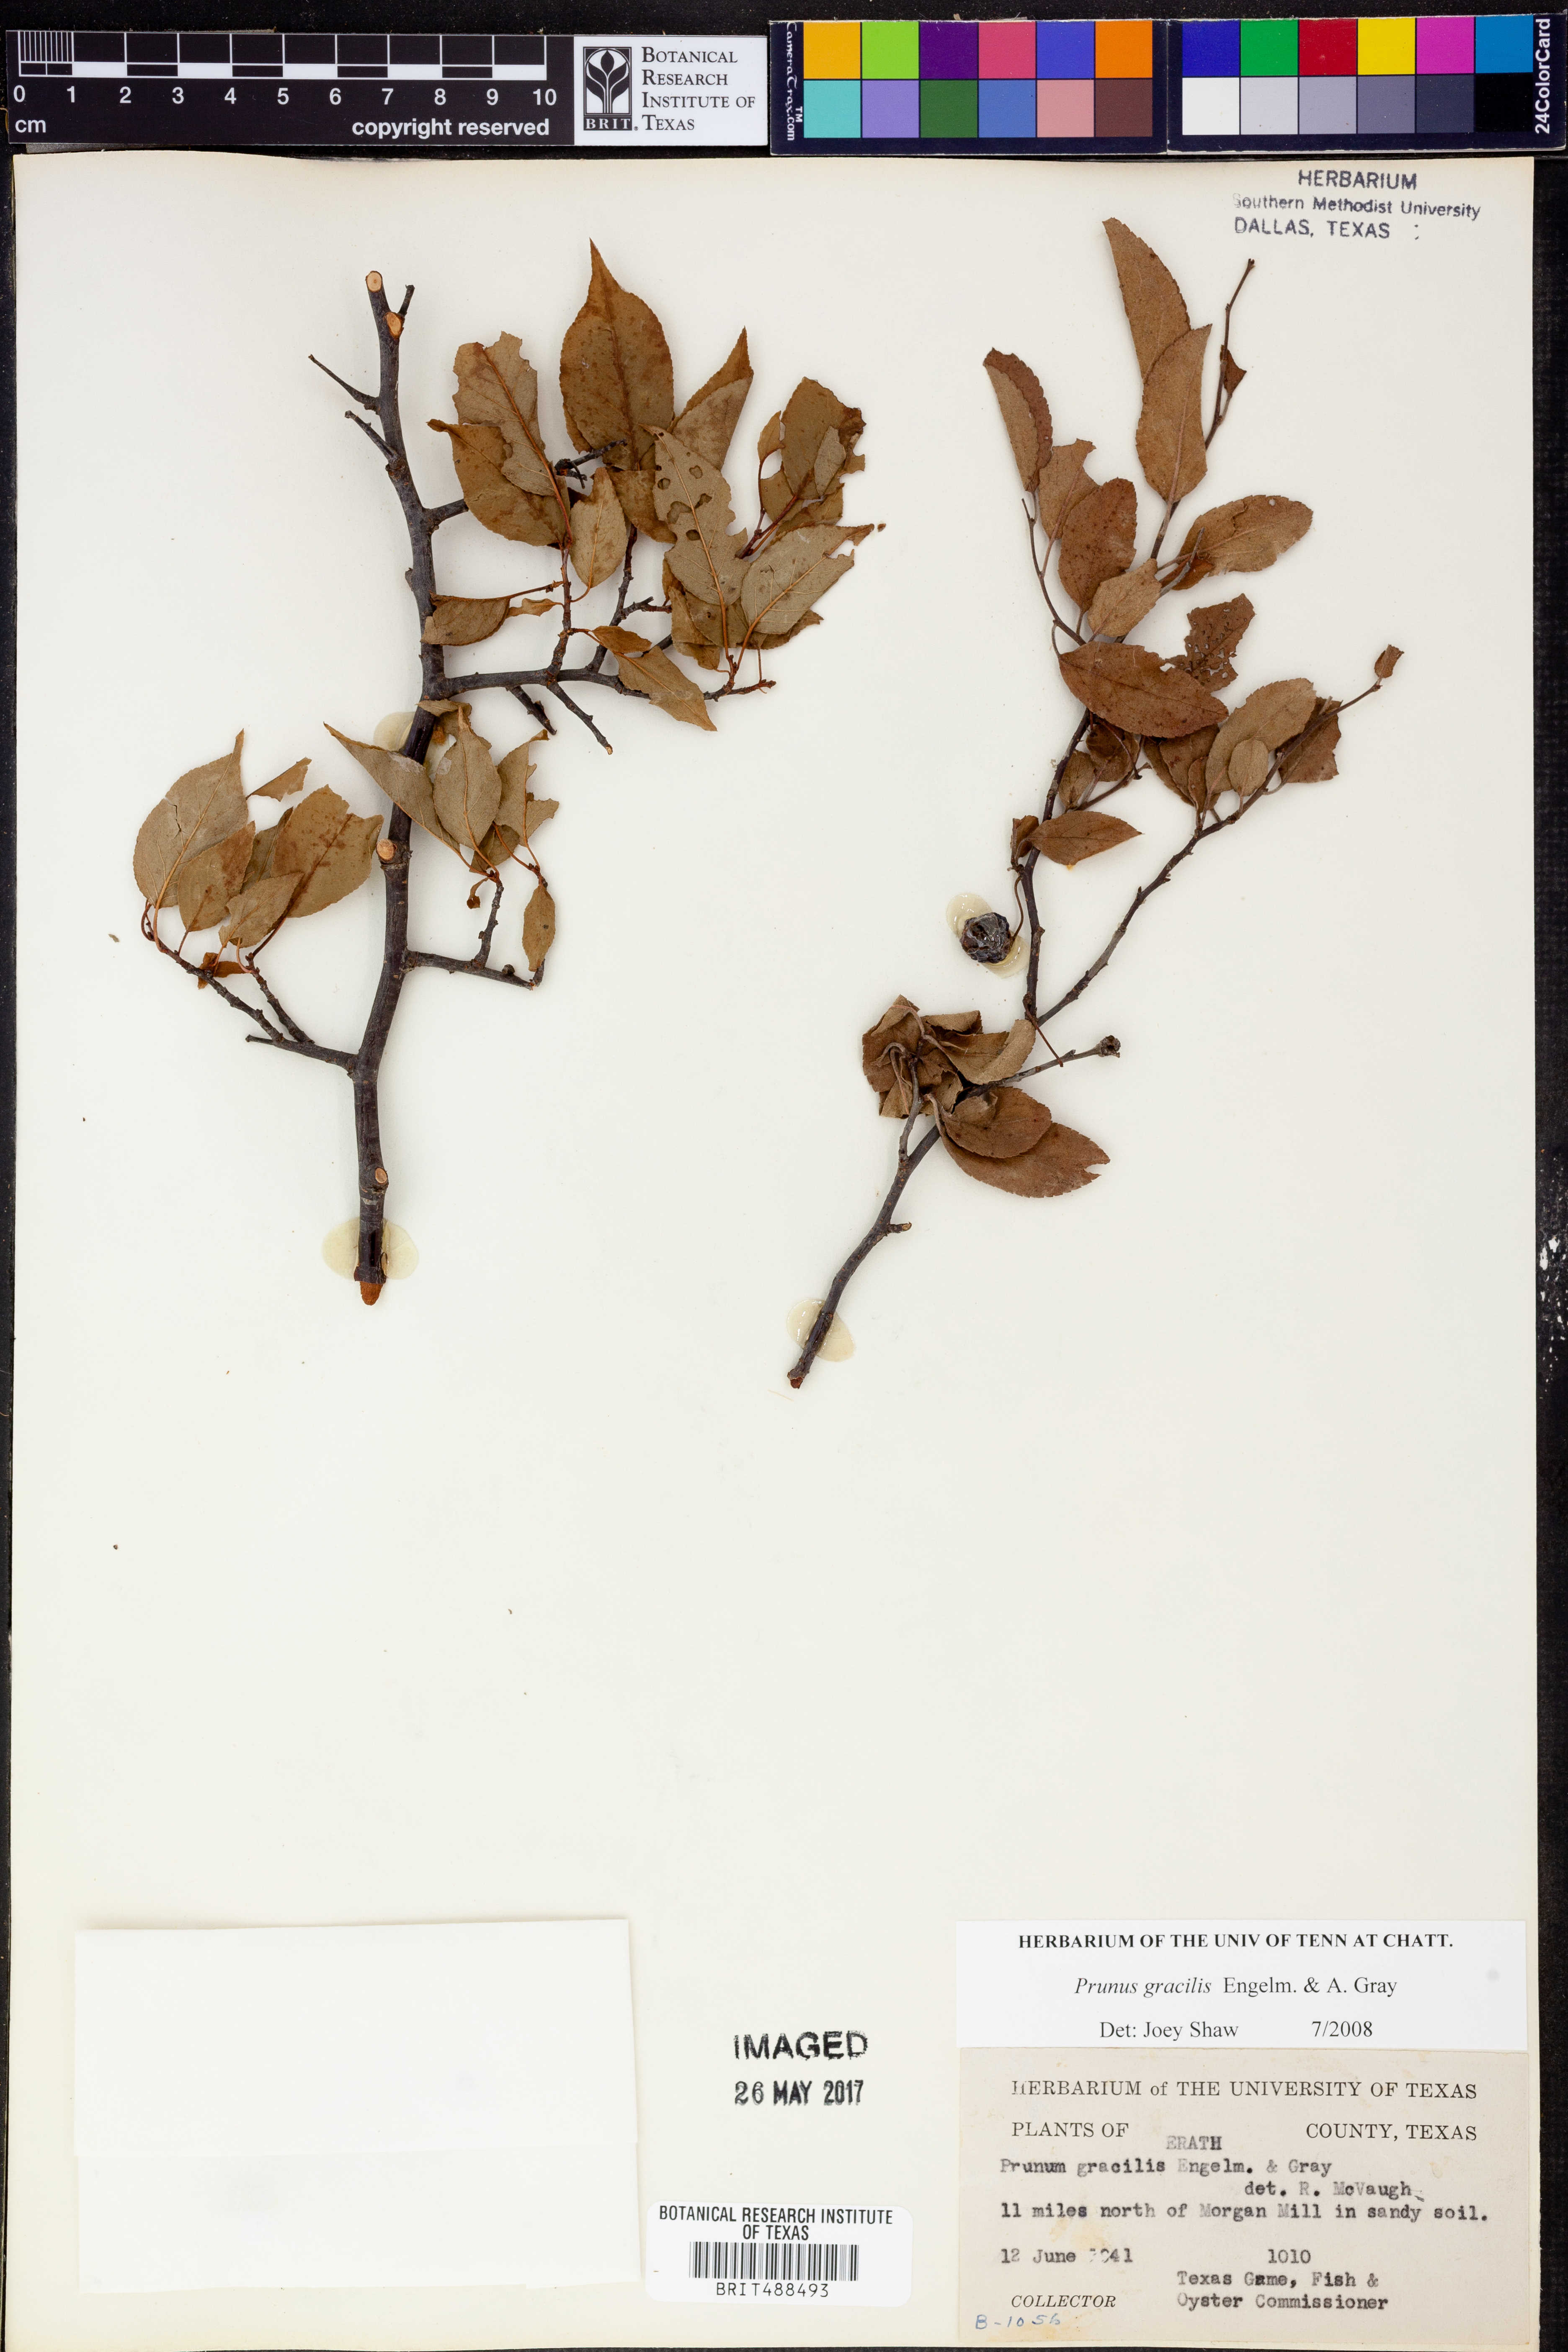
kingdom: Plantae
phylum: Tracheophyta
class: Magnoliopsida
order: Rosales
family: Rosaceae
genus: Prunus
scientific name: Prunus gracilis
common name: Oklahoma plum
